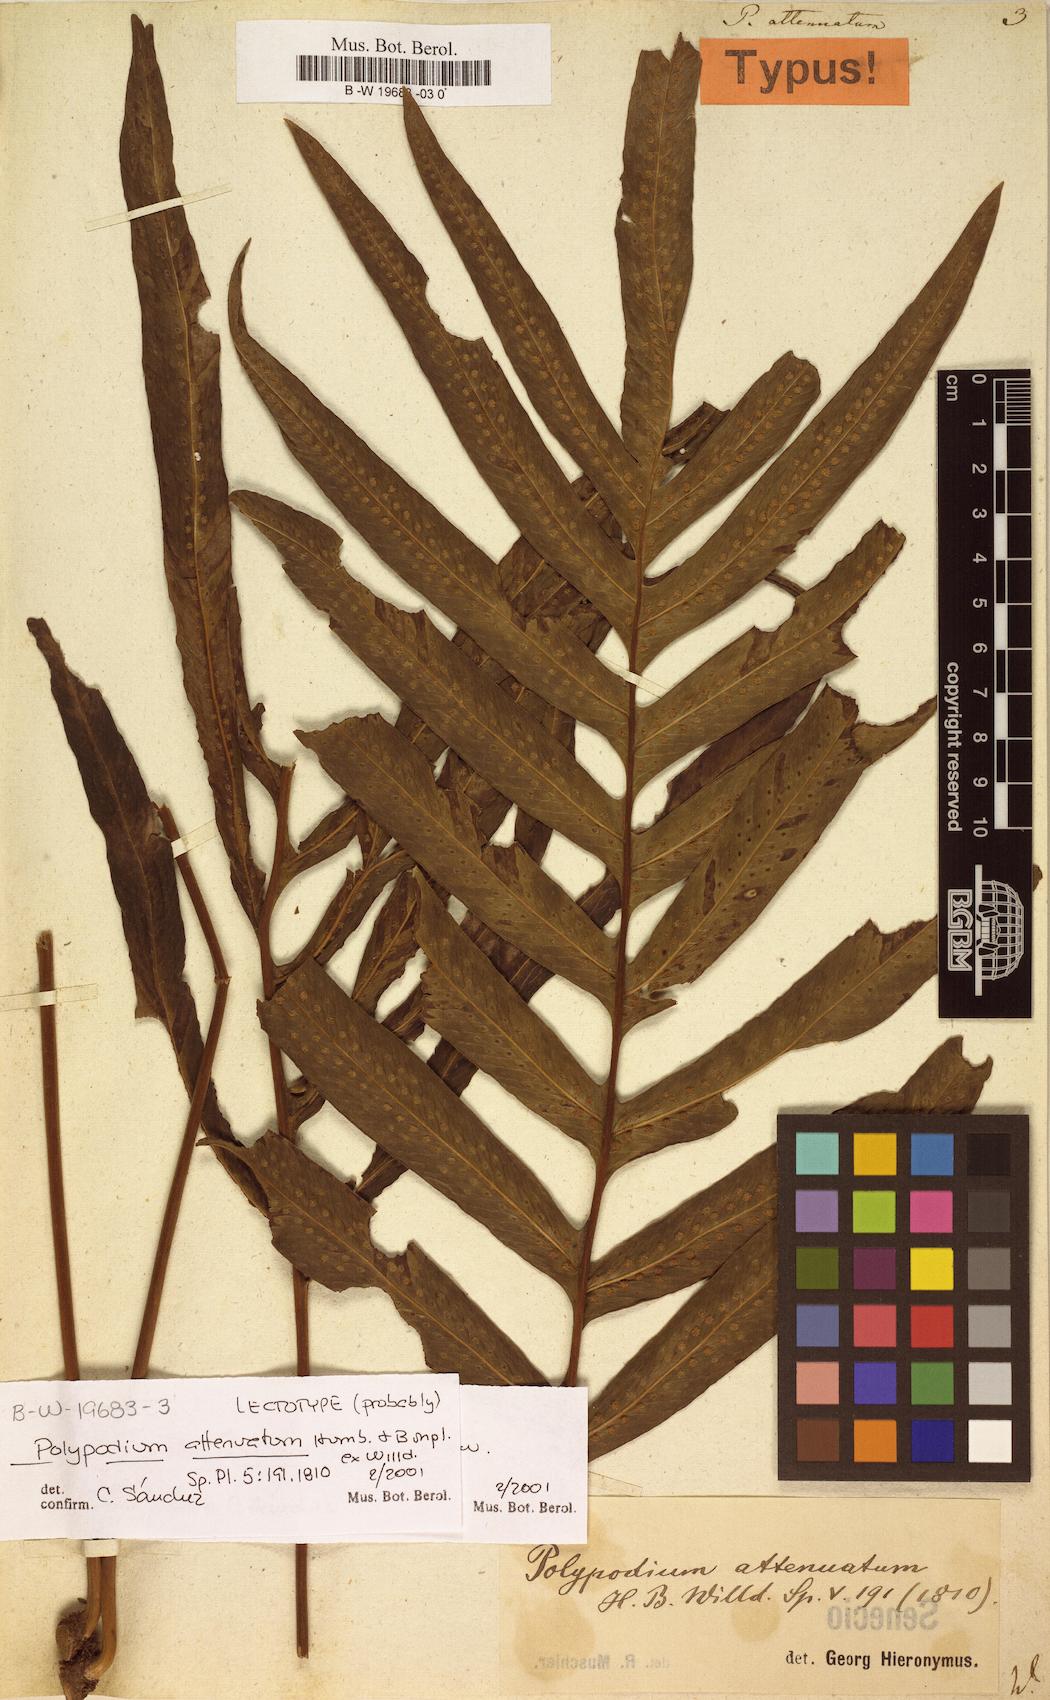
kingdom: Plantae
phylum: Tracheophyta
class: Polypodiopsida
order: Polypodiales
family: Polypodiaceae
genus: Serpocaulon
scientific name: Serpocaulon attenuatum
